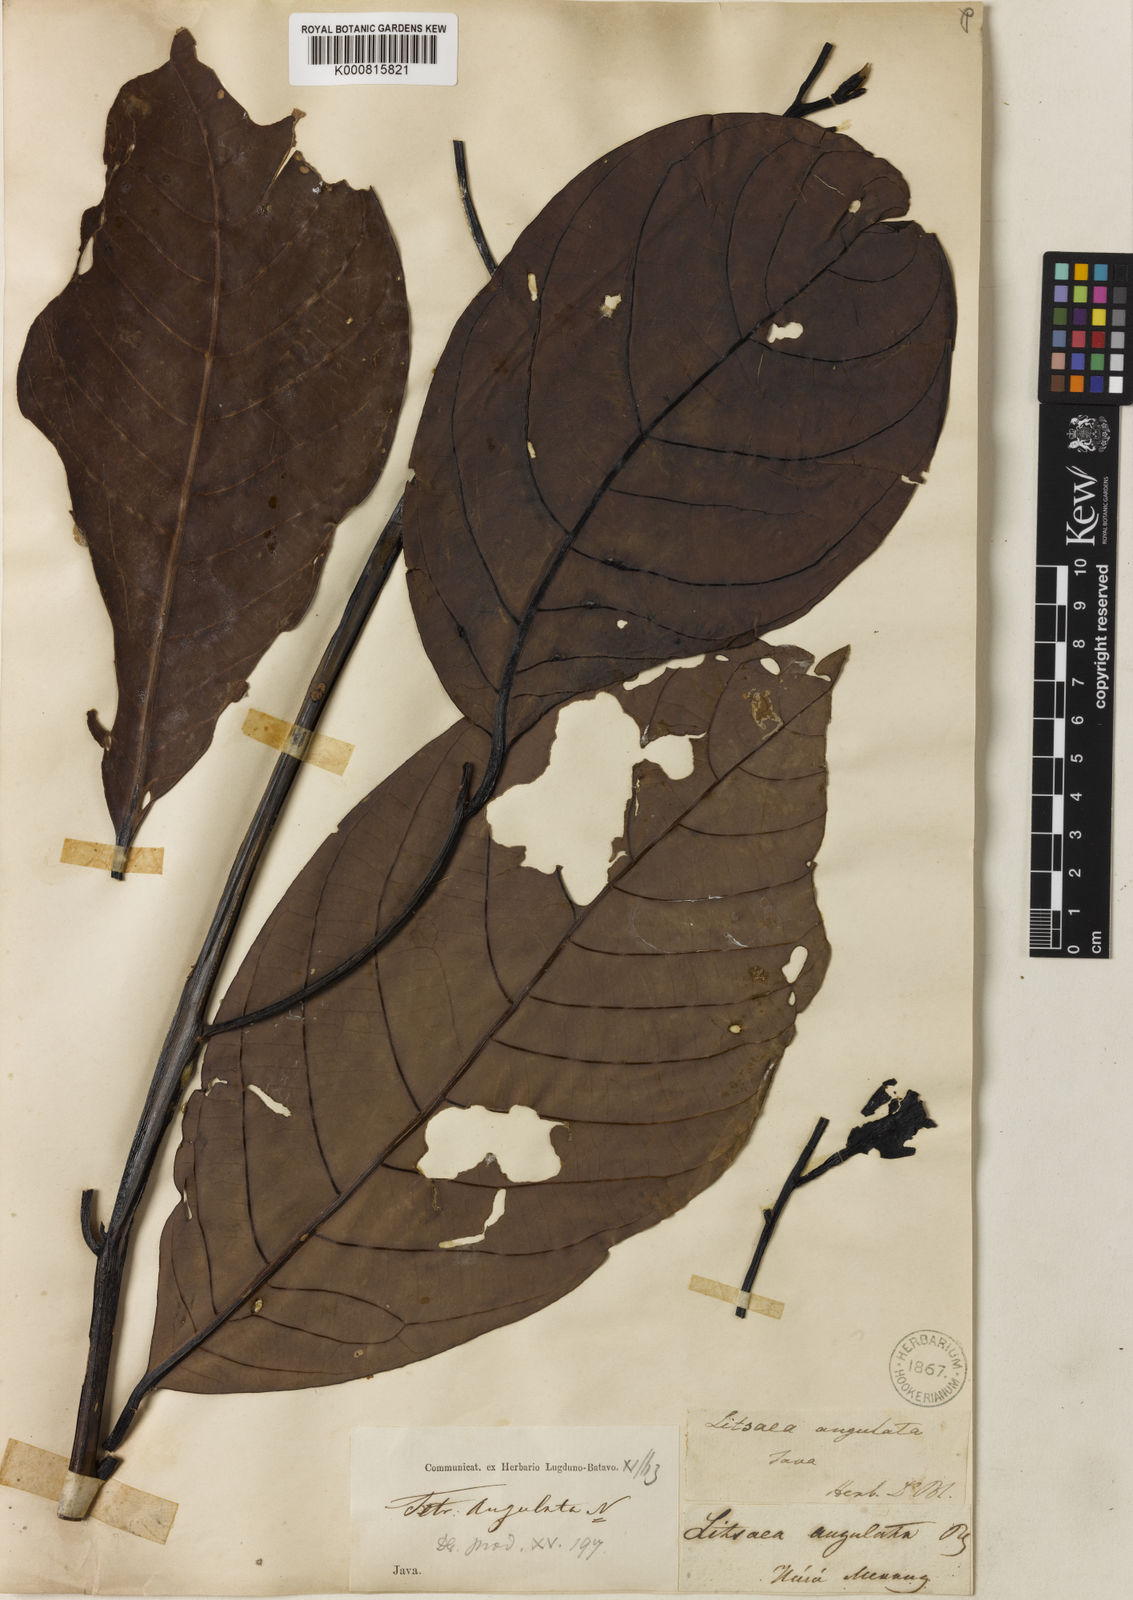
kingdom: Plantae
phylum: Tracheophyta
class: Magnoliopsida
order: Laurales
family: Lauraceae
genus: Litsea
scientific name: Litsea angulata
